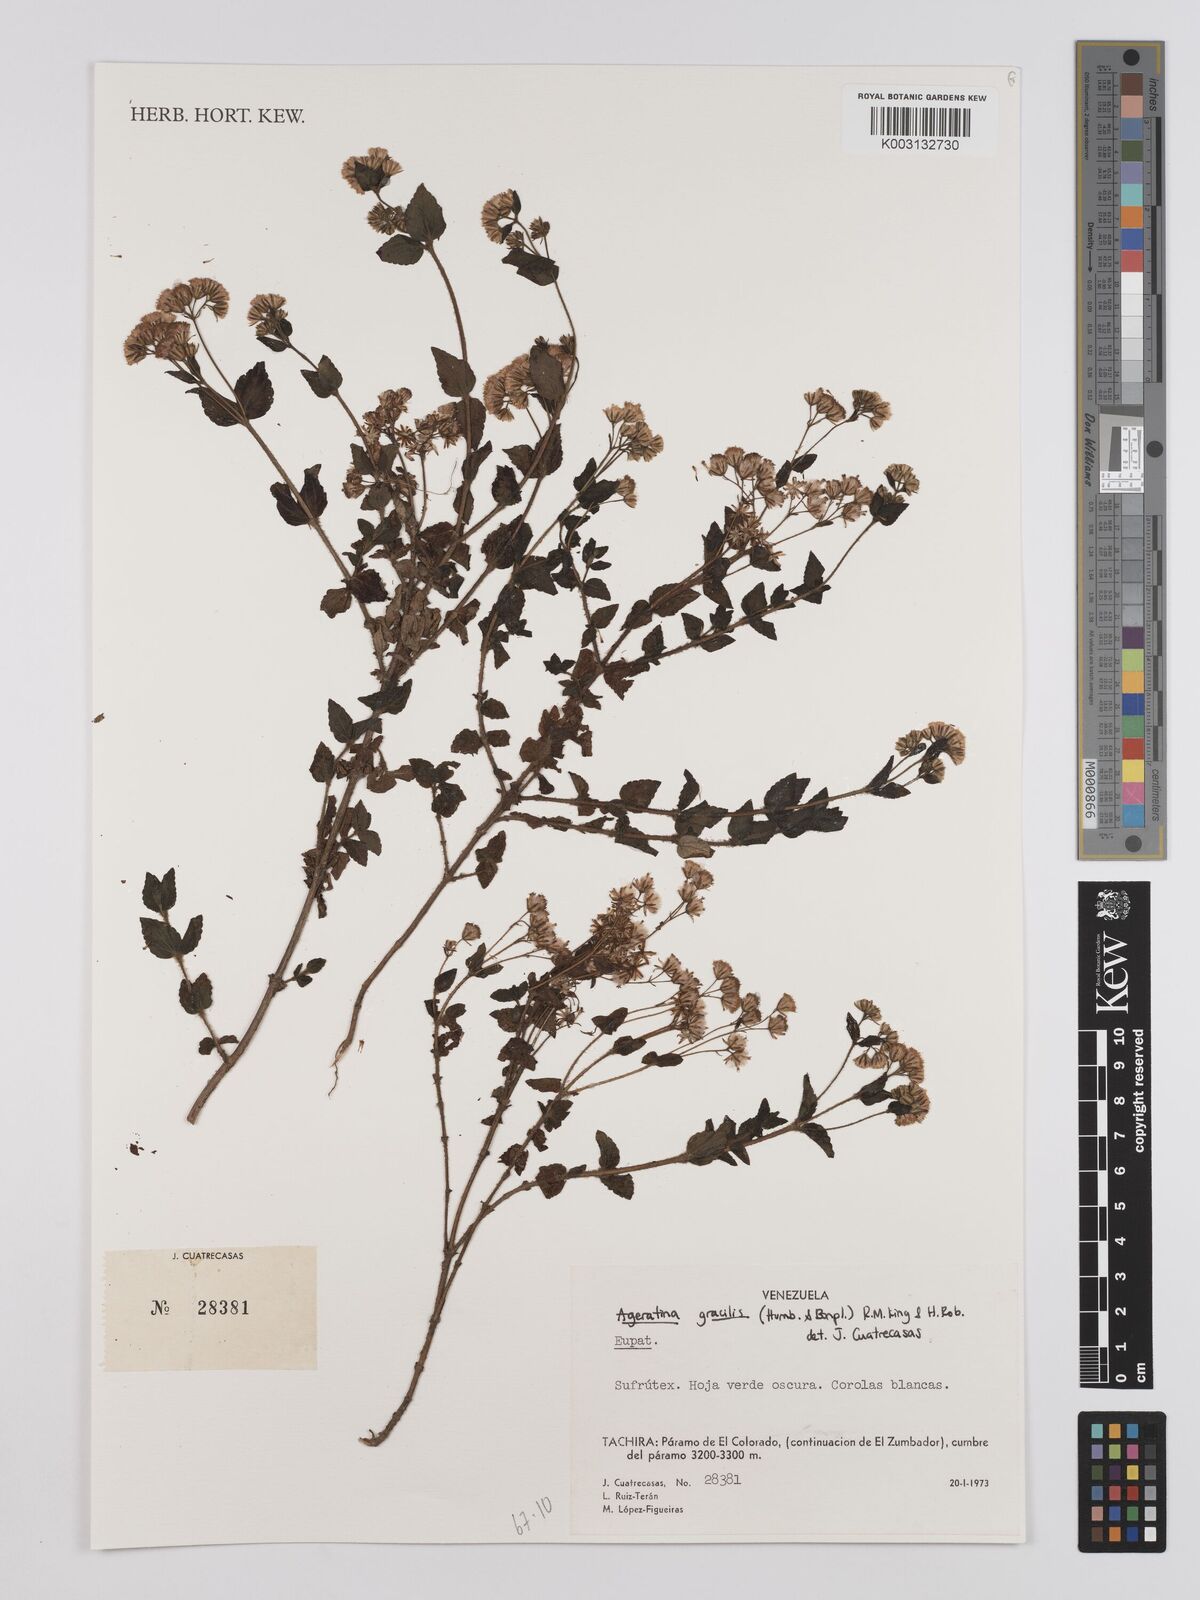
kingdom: Plantae
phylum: Tracheophyta
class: Magnoliopsida
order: Asterales
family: Asteraceae
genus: Ageratina
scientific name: Ageratina gracilis
